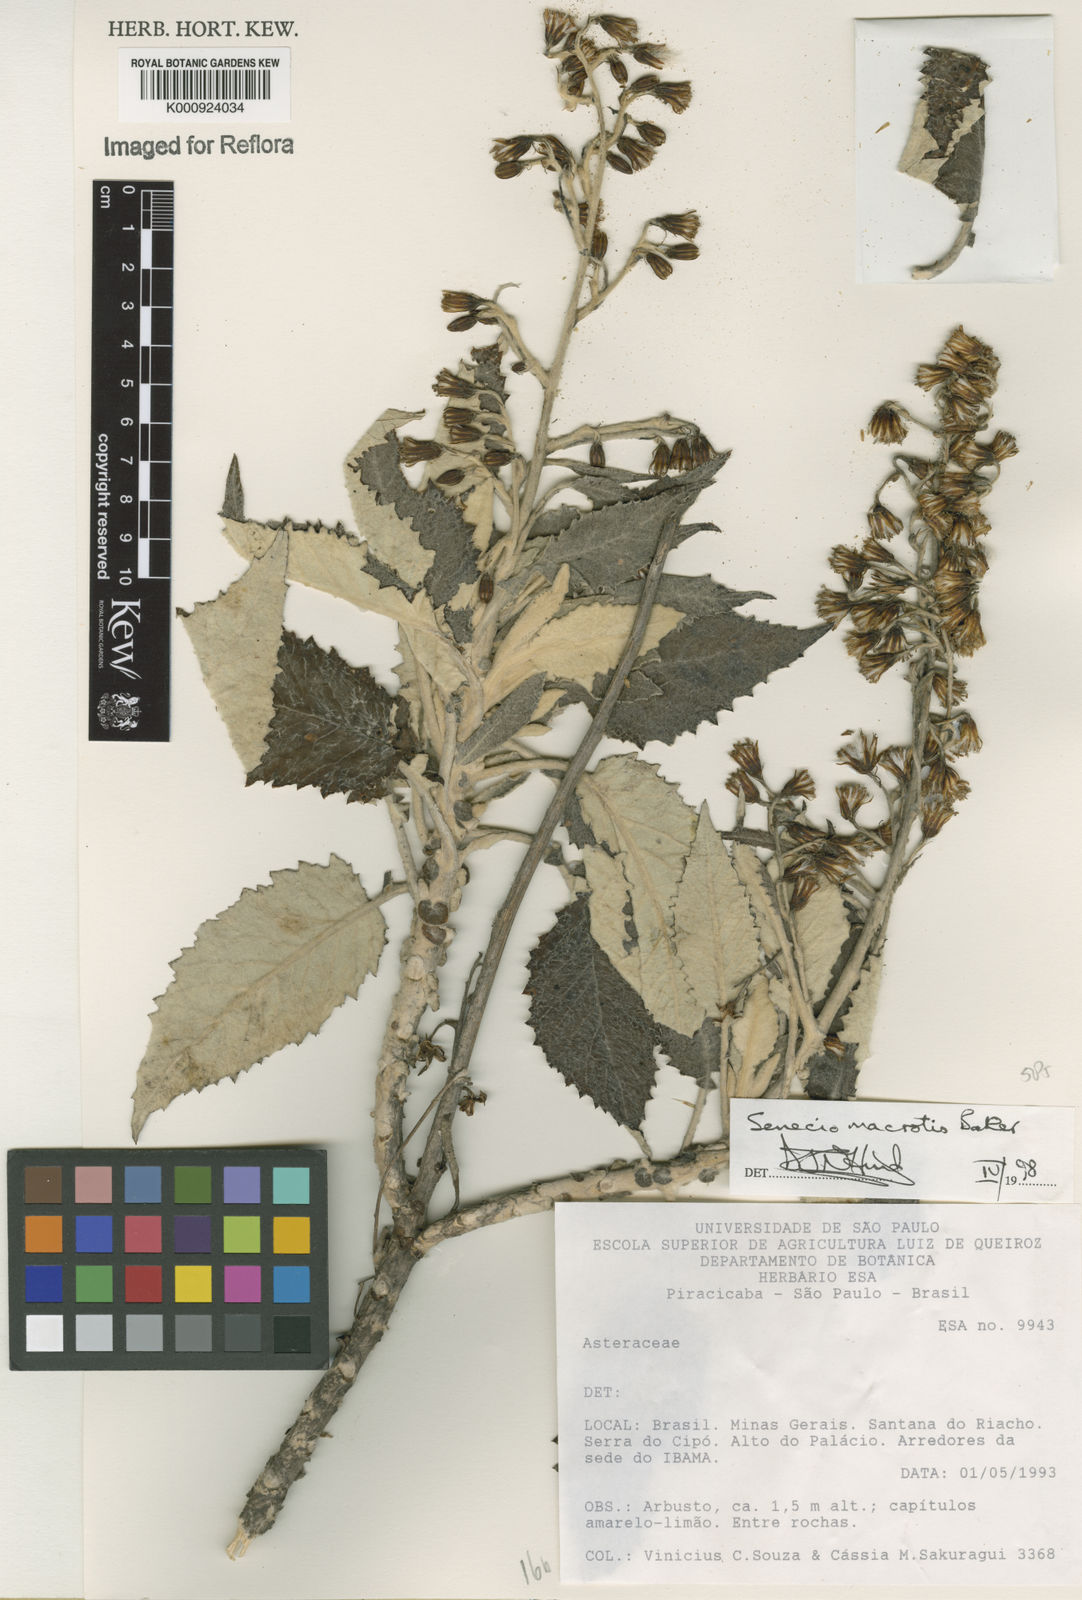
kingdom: Plantae
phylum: Tracheophyta
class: Magnoliopsida
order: Asterales
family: Asteraceae
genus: Senecio
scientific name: Senecio macrotis
